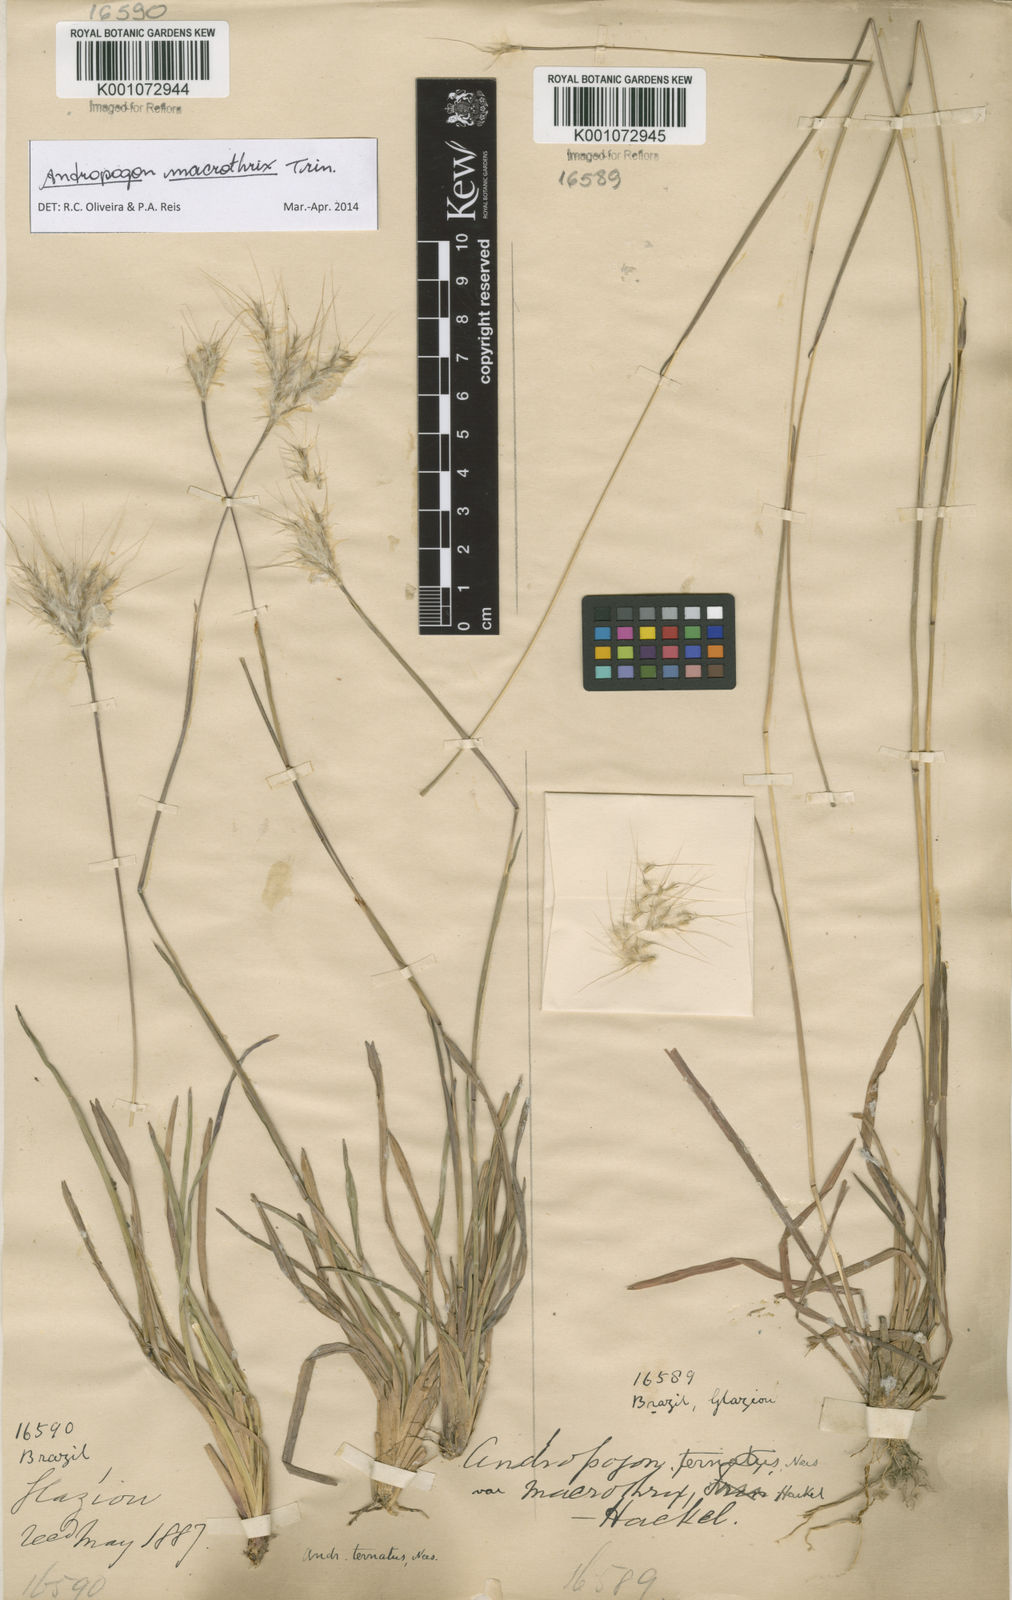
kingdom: Plantae
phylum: Tracheophyta
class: Liliopsida
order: Poales
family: Poaceae
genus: Andropogon
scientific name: Andropogon macrothrix
